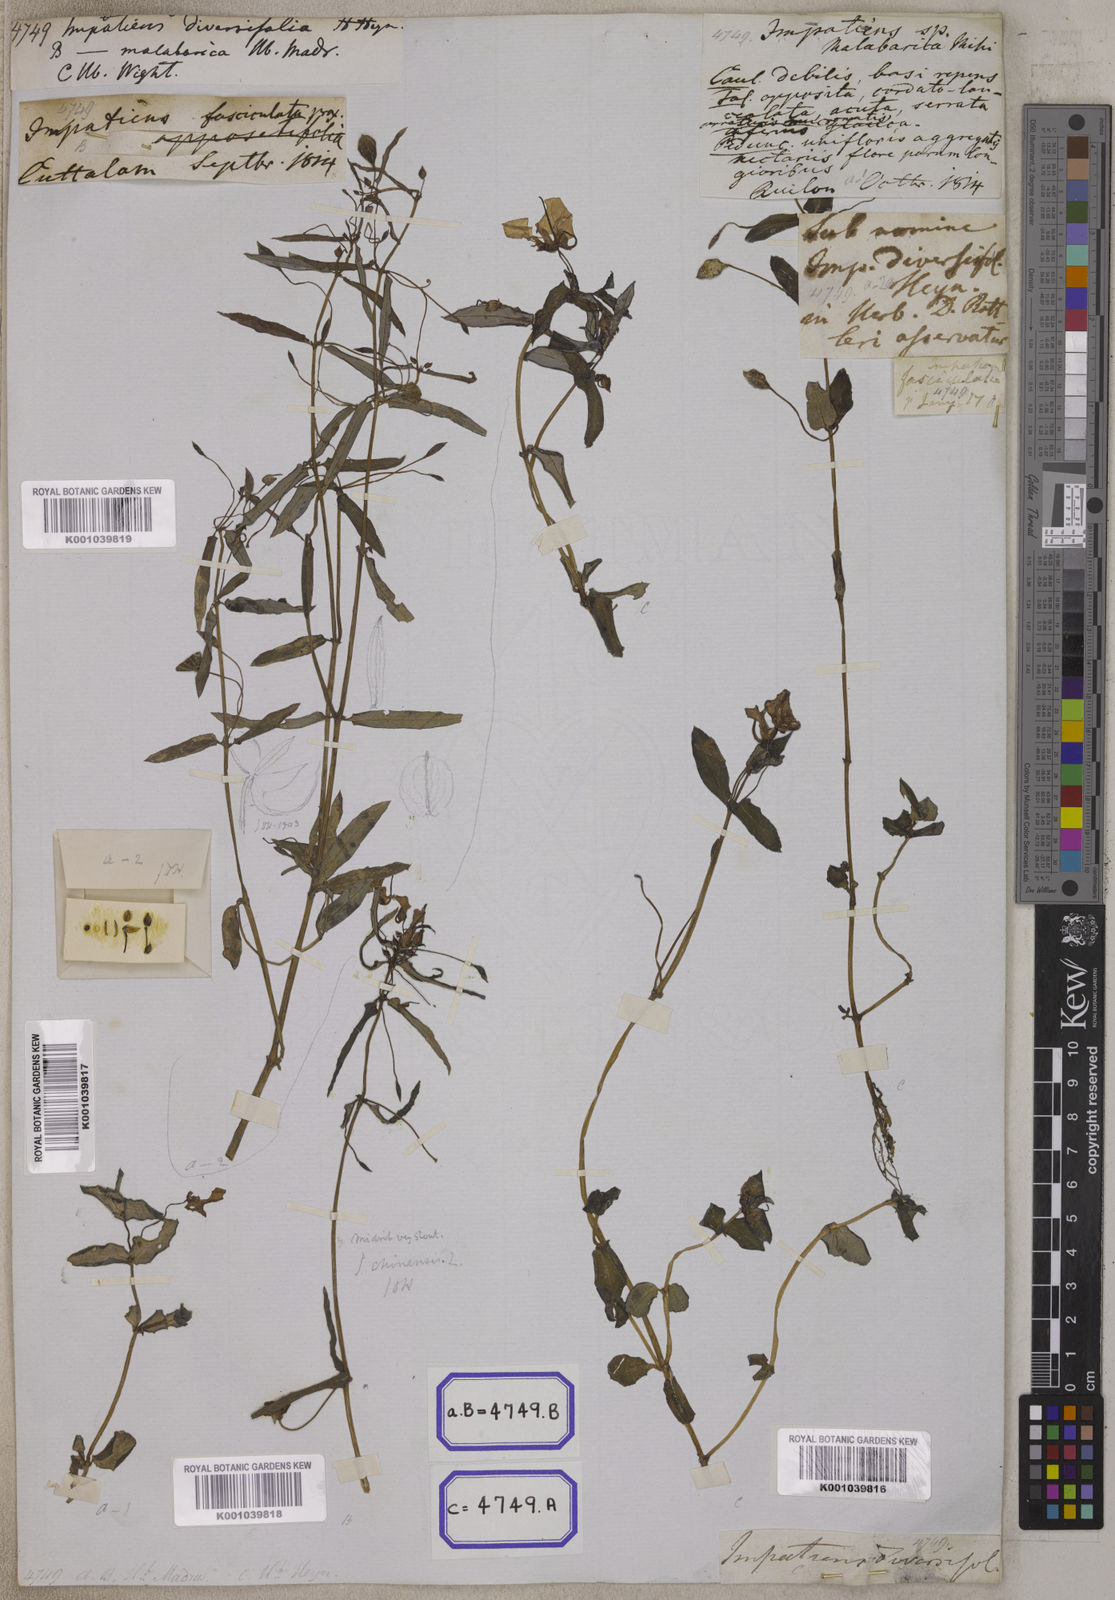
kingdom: Plantae
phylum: Tracheophyta
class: Magnoliopsida
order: Ericales
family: Balsaminaceae
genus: Impatiens
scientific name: Impatiens
